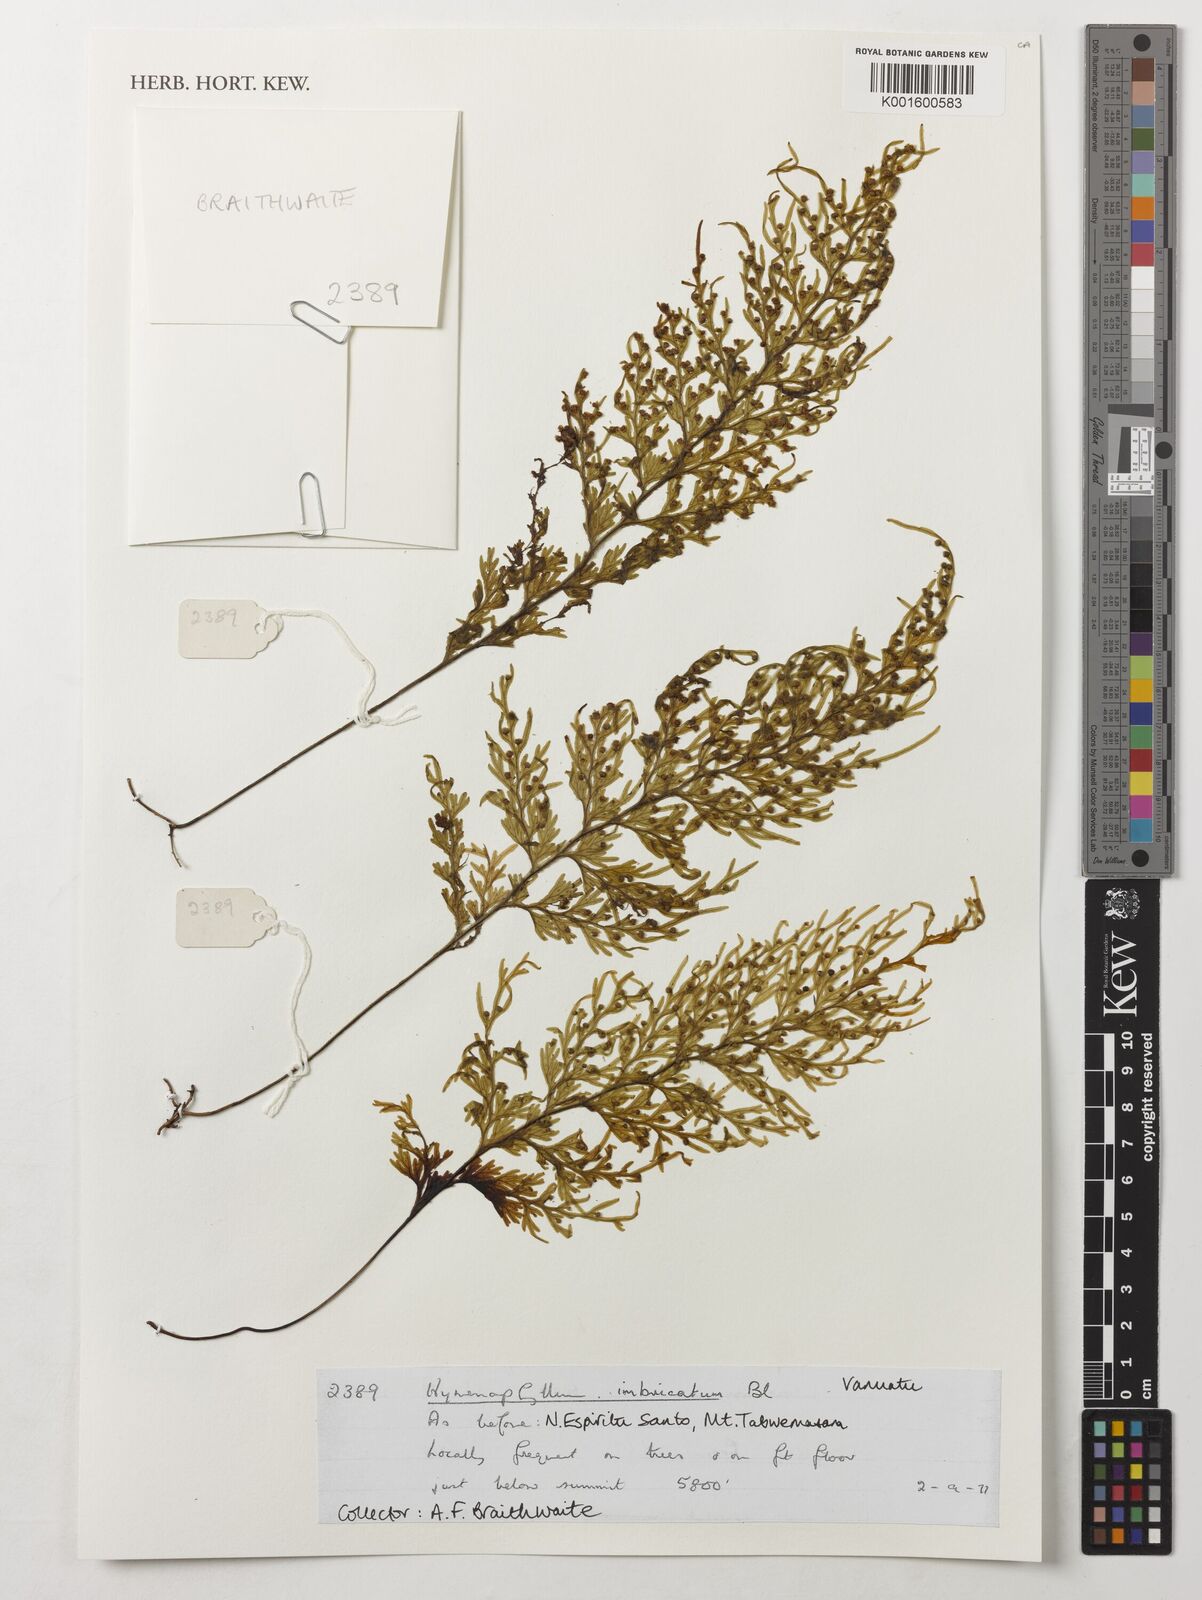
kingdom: Plantae
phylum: Tracheophyta
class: Polypodiopsida
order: Hymenophyllales
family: Hymenophyllaceae
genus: Hymenophyllum
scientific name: Hymenophyllum imbricatum
